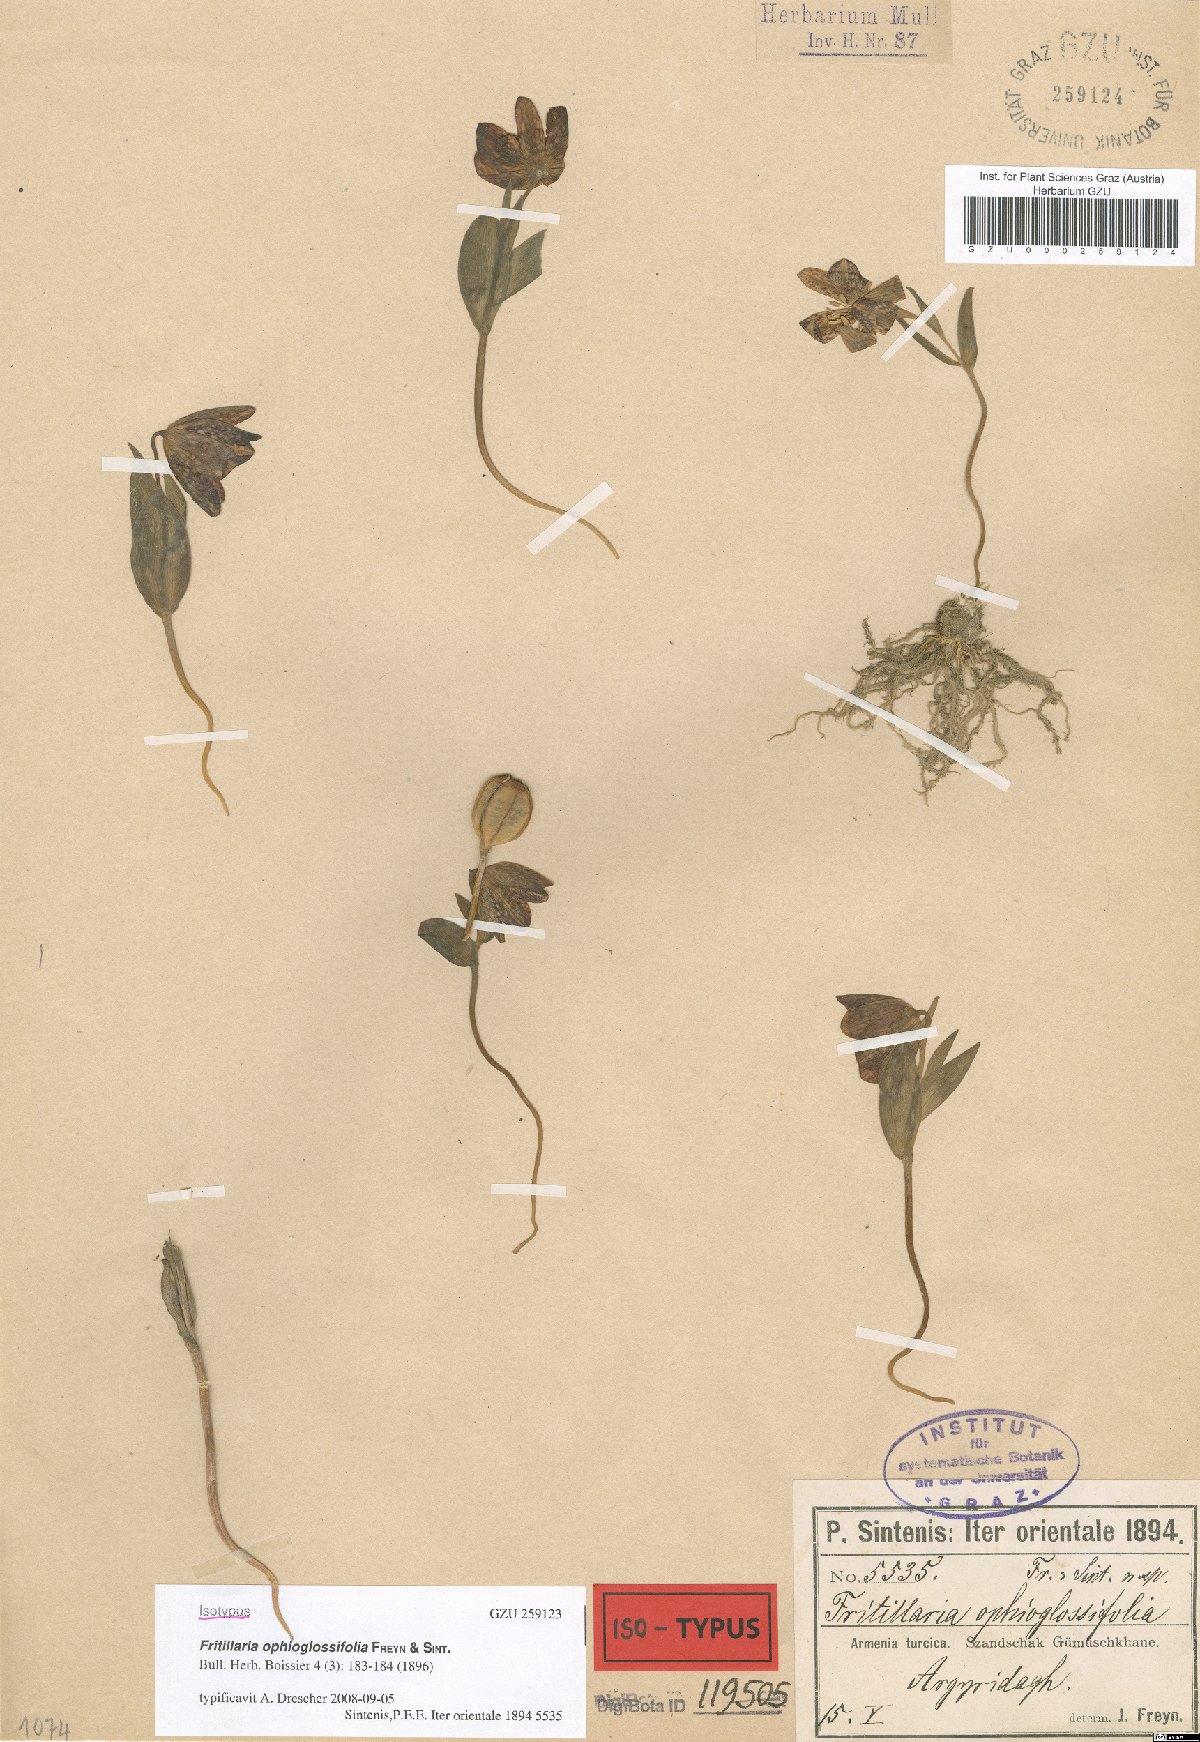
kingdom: Plantae
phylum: Tracheophyta
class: Liliopsida
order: Liliales
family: Liliaceae
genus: Fritillaria
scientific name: Fritillaria crassifolia
